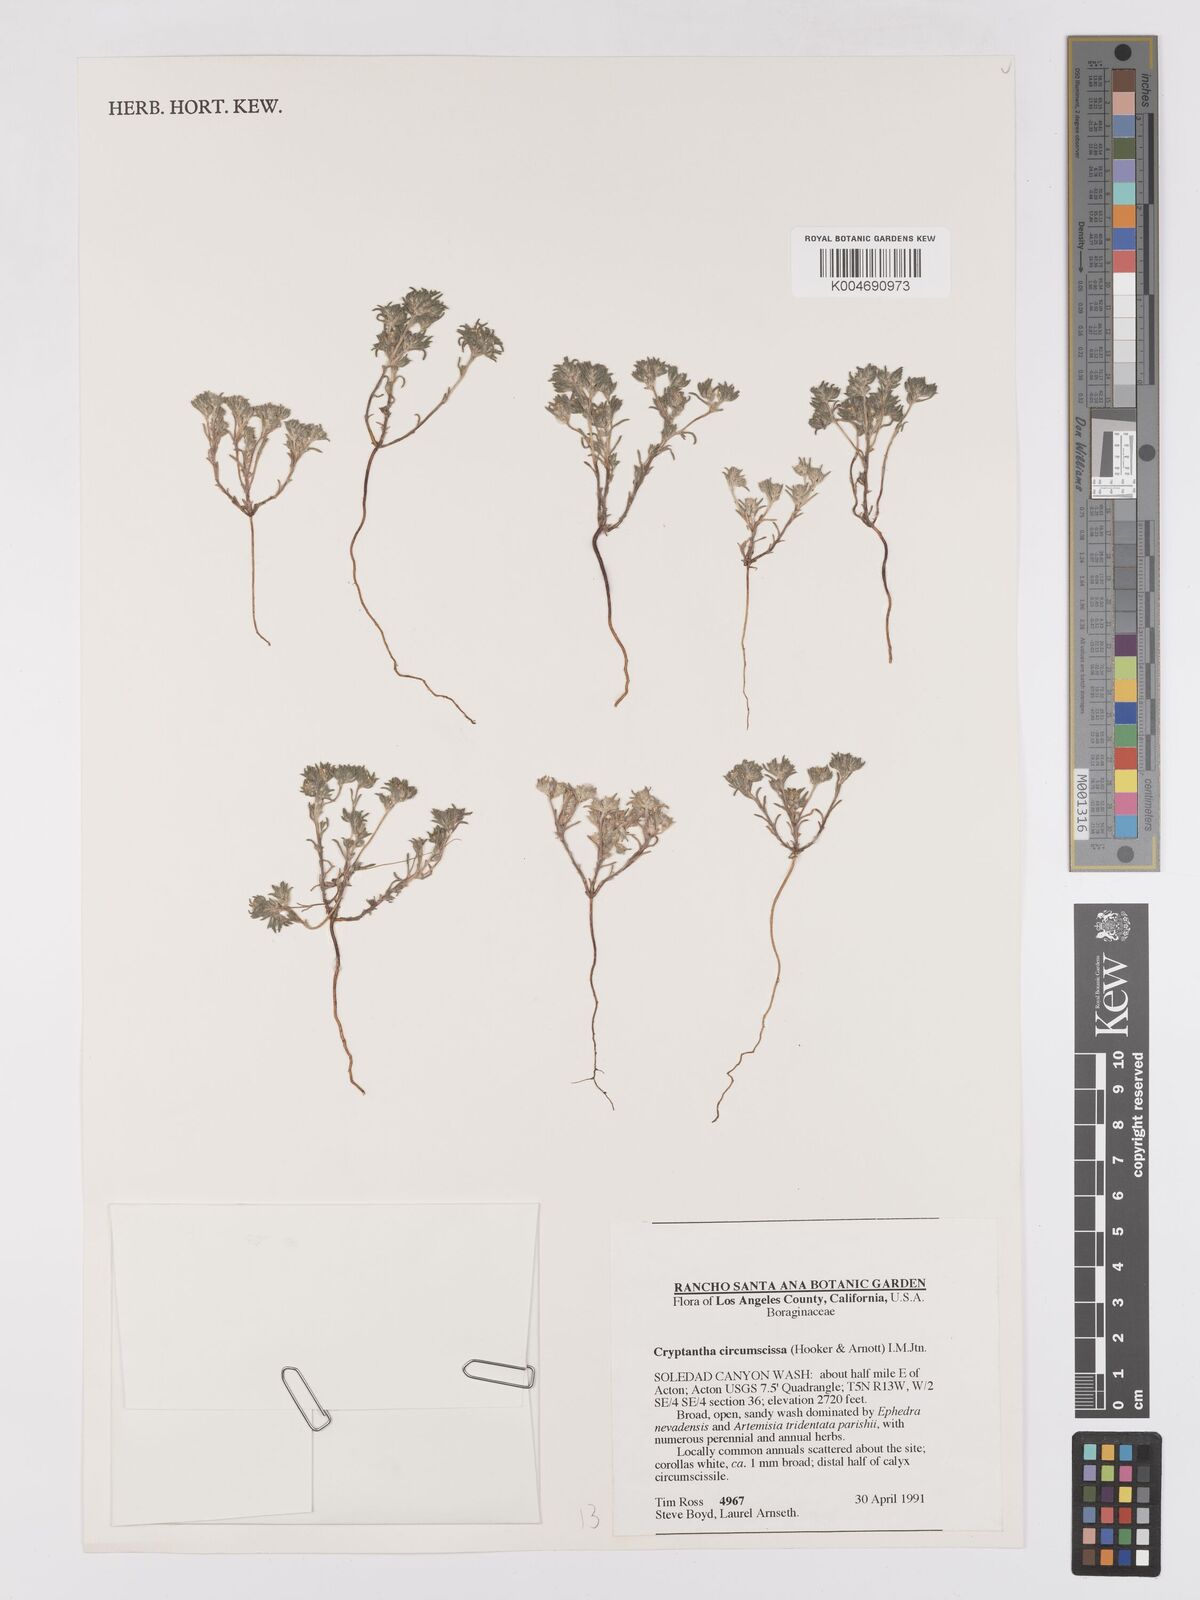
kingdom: Plantae
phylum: Tracheophyta
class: Magnoliopsida
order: Boraginales
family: Boraginaceae
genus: Greeneocharis
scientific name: Greeneocharis circumscissa
